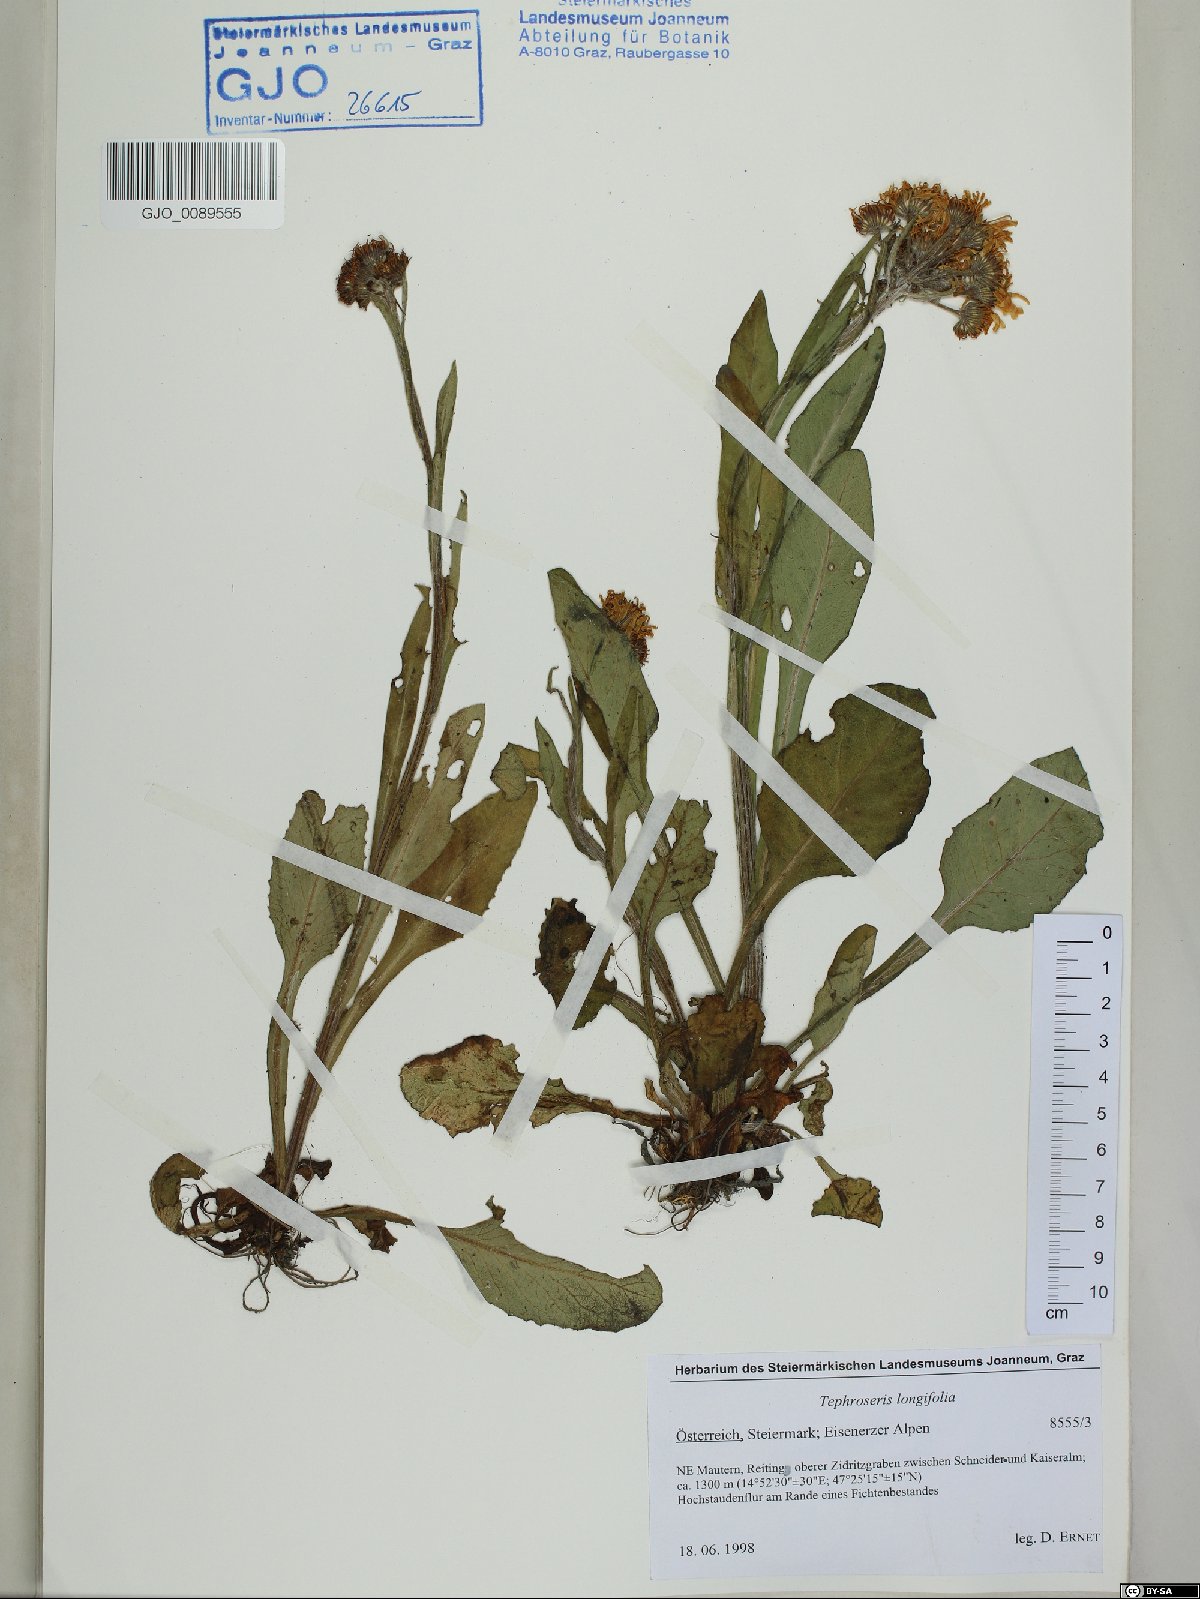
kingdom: Plantae
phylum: Tracheophyta
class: Magnoliopsida
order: Asterales
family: Asteraceae
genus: Tephroseris
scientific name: Tephroseris longifolia
